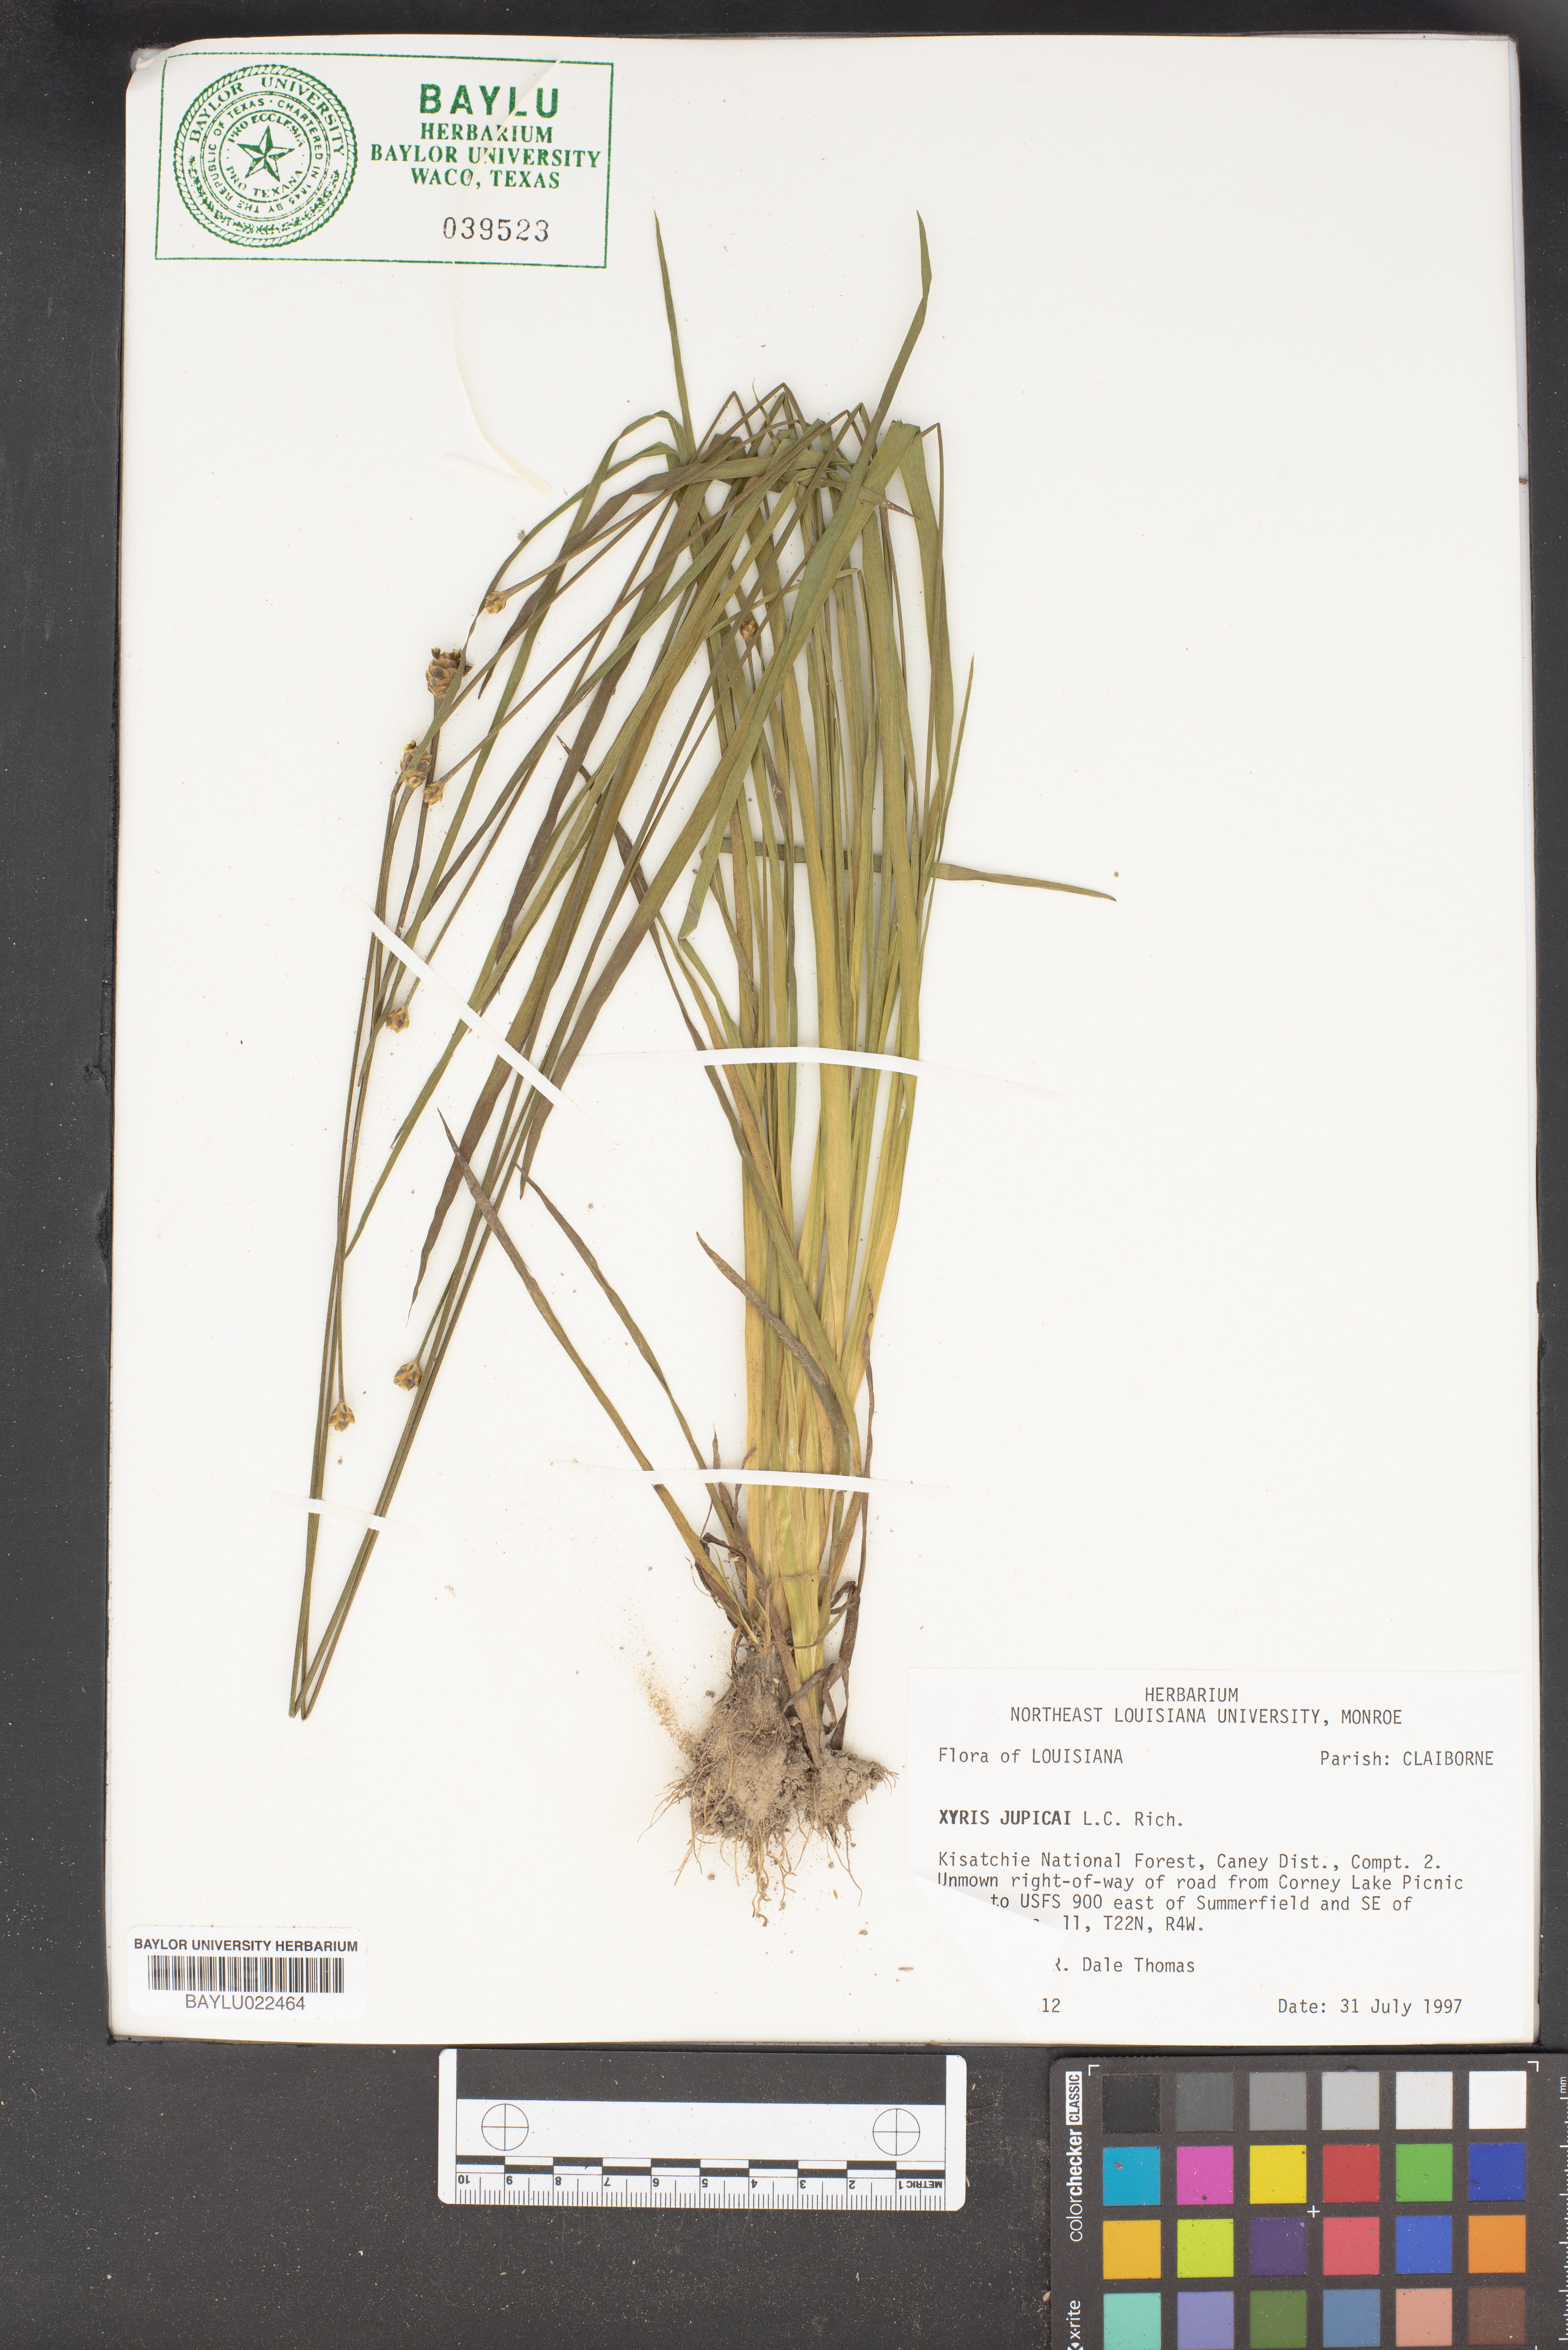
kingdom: Plantae
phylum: Tracheophyta
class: Liliopsida
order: Poales
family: Xyridaceae
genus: Xyris
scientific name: Xyris jupicai
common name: Richard's yelloweyed grass
